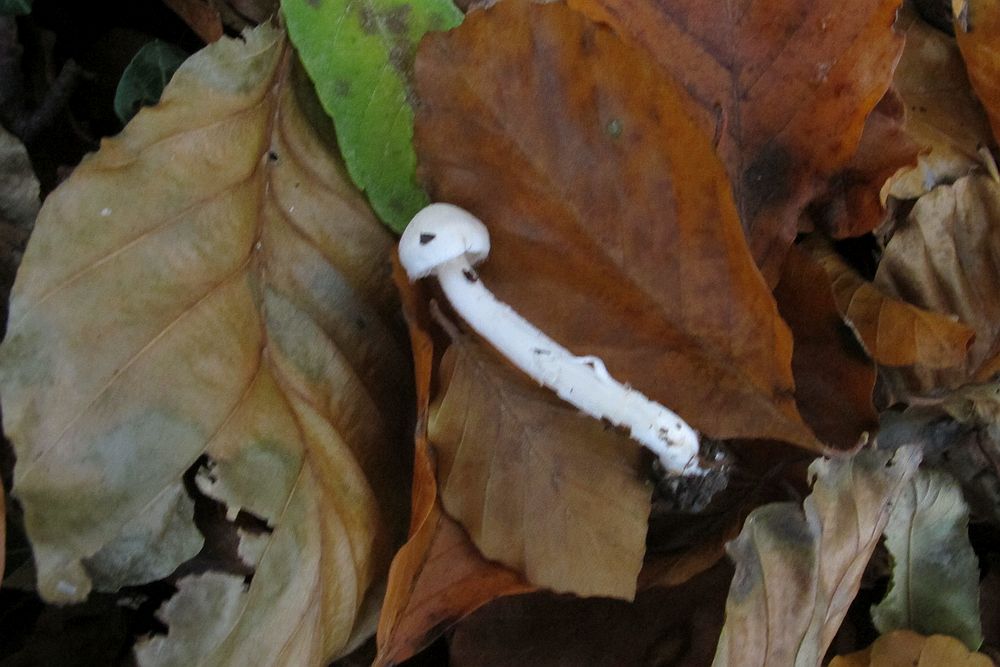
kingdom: Fungi
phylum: Basidiomycota
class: Agaricomycetes
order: Agaricales
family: Inocybaceae
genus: Inocybe
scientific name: Inocybe
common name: almindelig trævlhat
